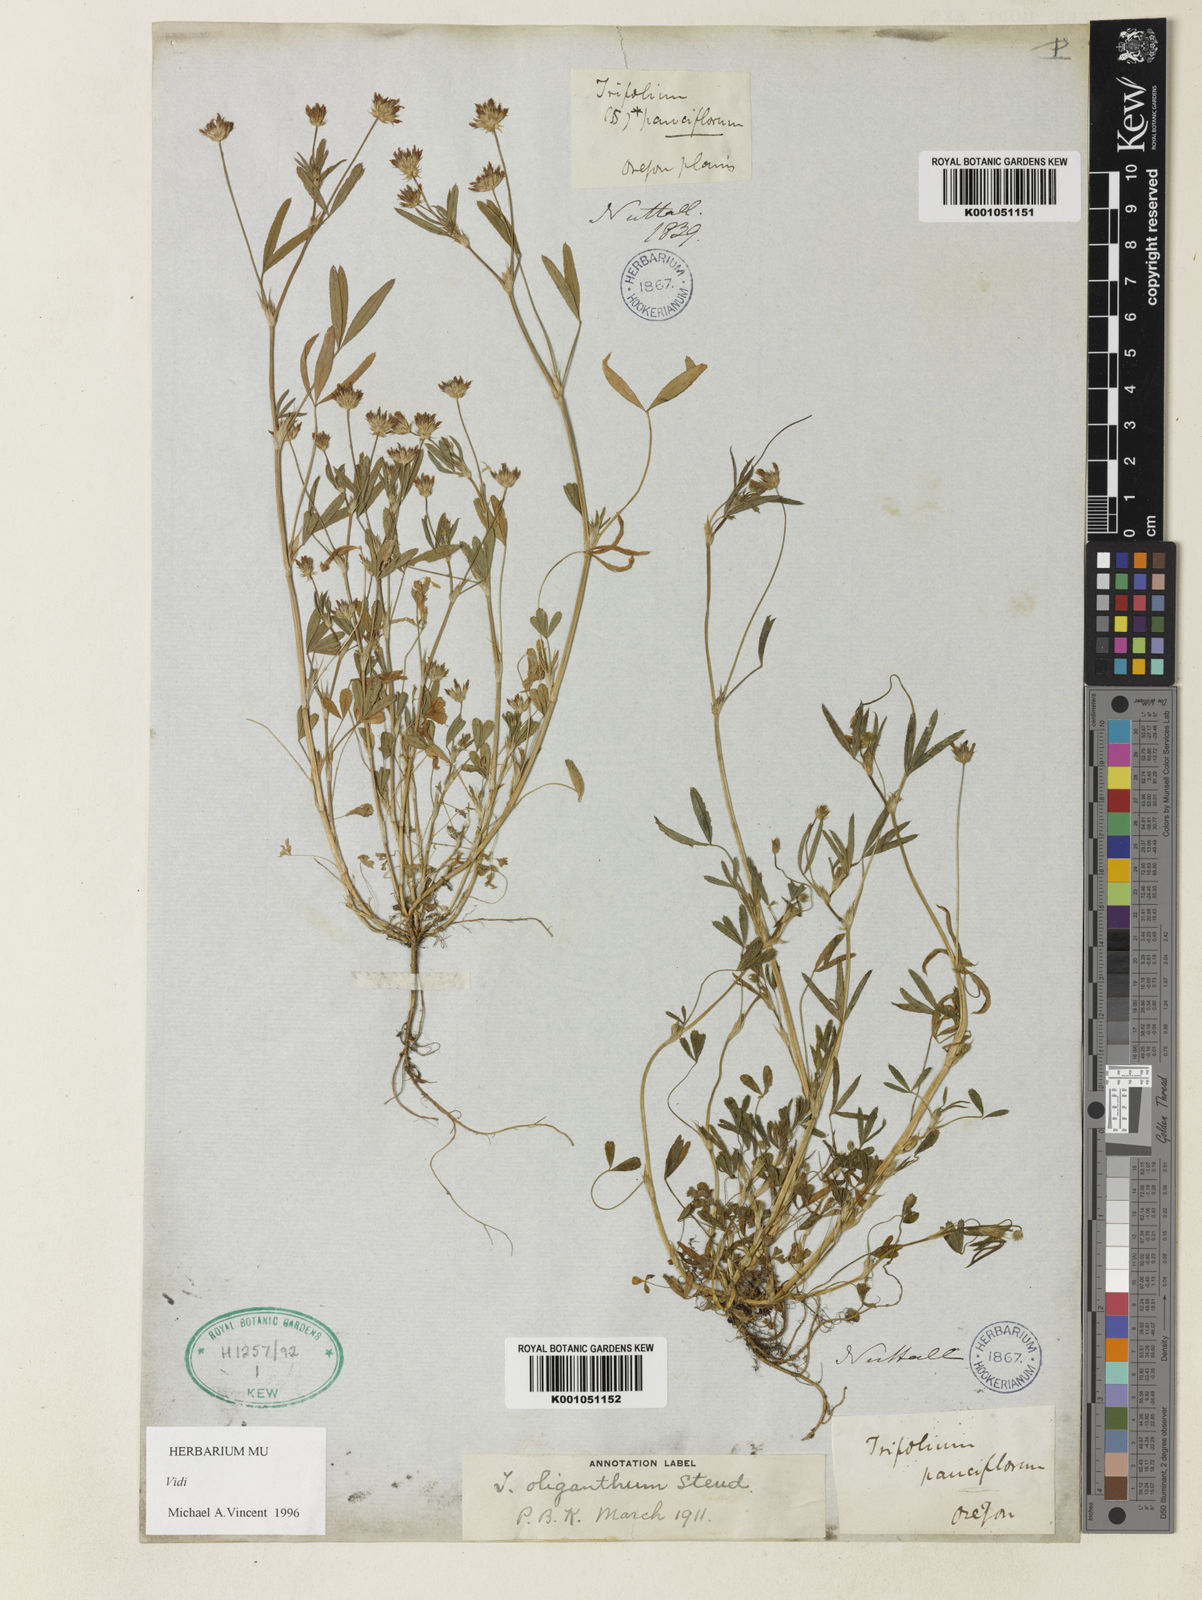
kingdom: Plantae
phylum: Tracheophyta
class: Magnoliopsida
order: Fabales
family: Fabaceae
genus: Trifolium
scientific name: Trifolium oliganthum
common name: Few-flower clover
